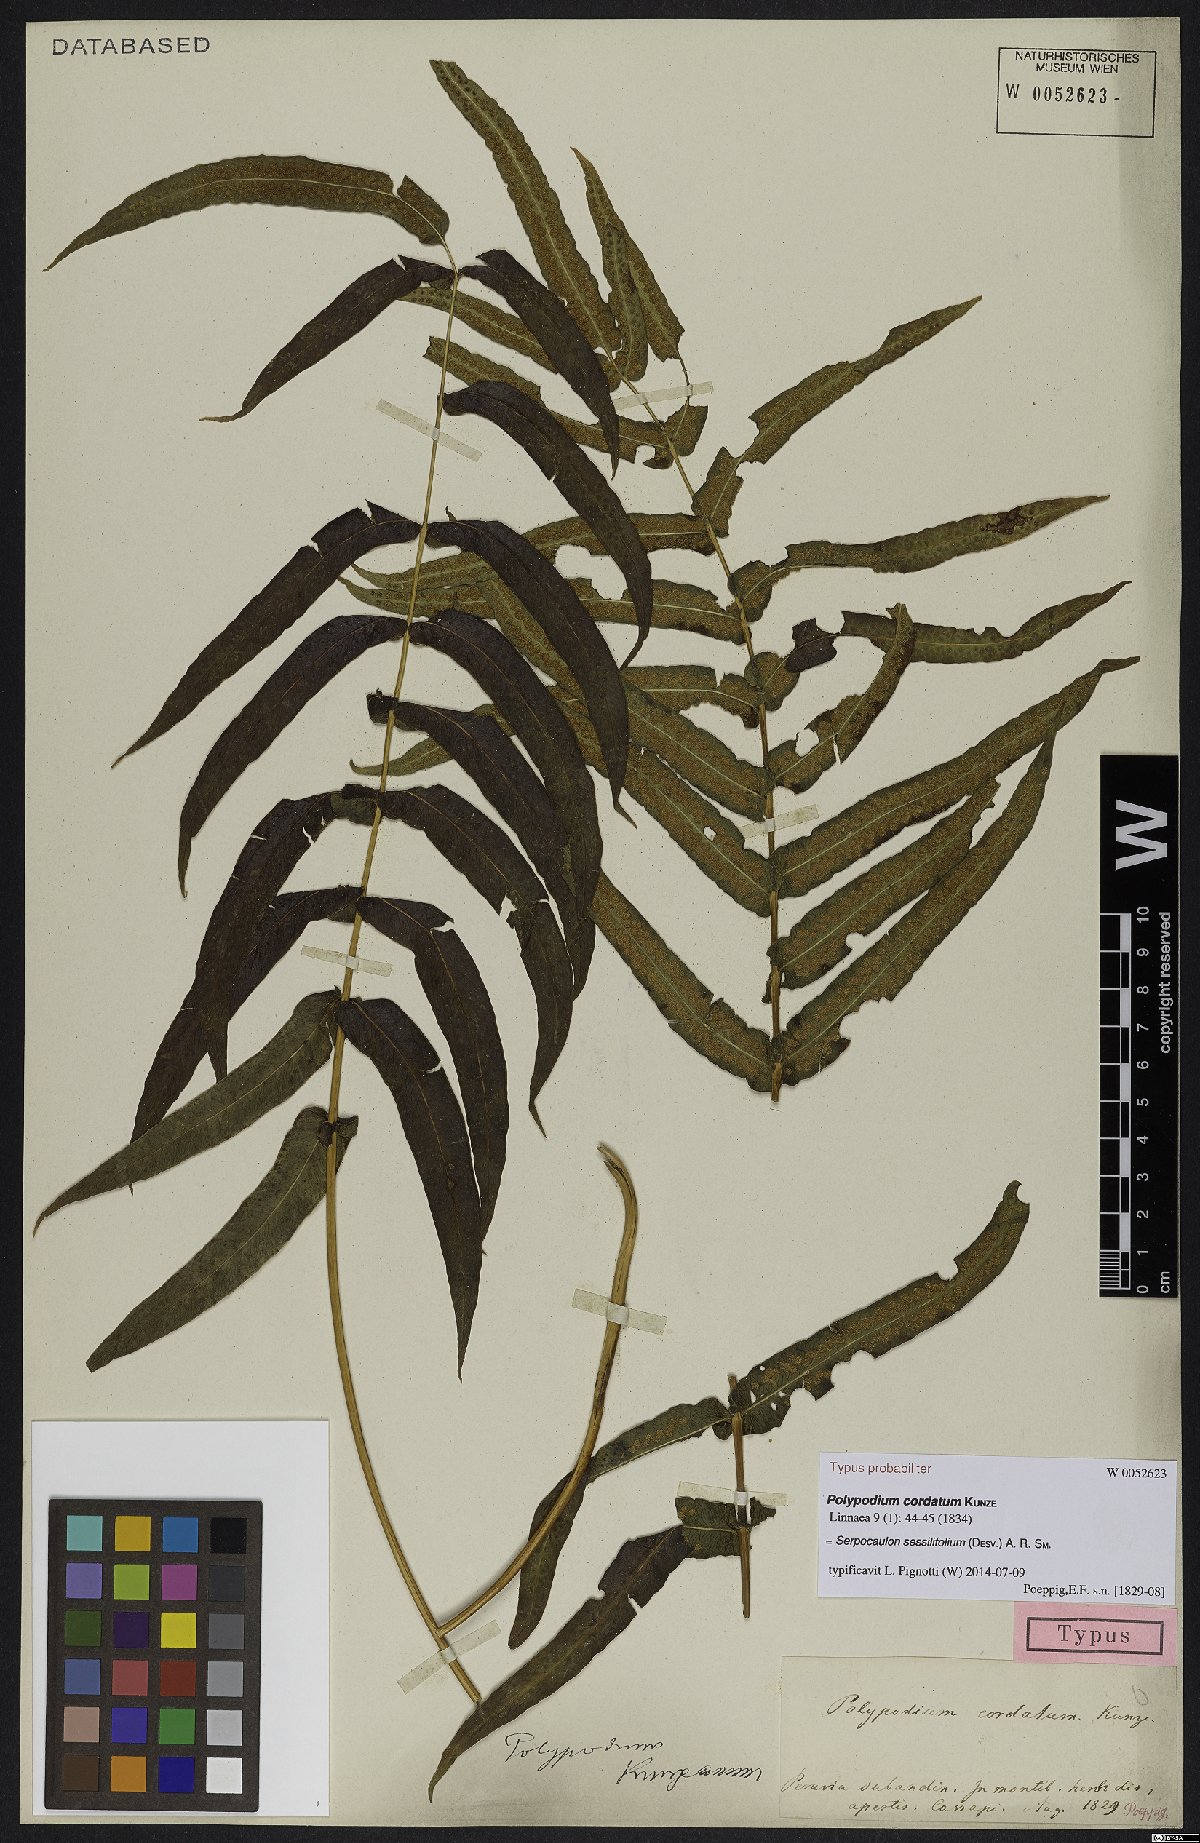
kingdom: Plantae
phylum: Tracheophyta
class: Polypodiopsida
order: Polypodiales
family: Polypodiaceae
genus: Serpocaulon
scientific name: Serpocaulon sessilifolium
